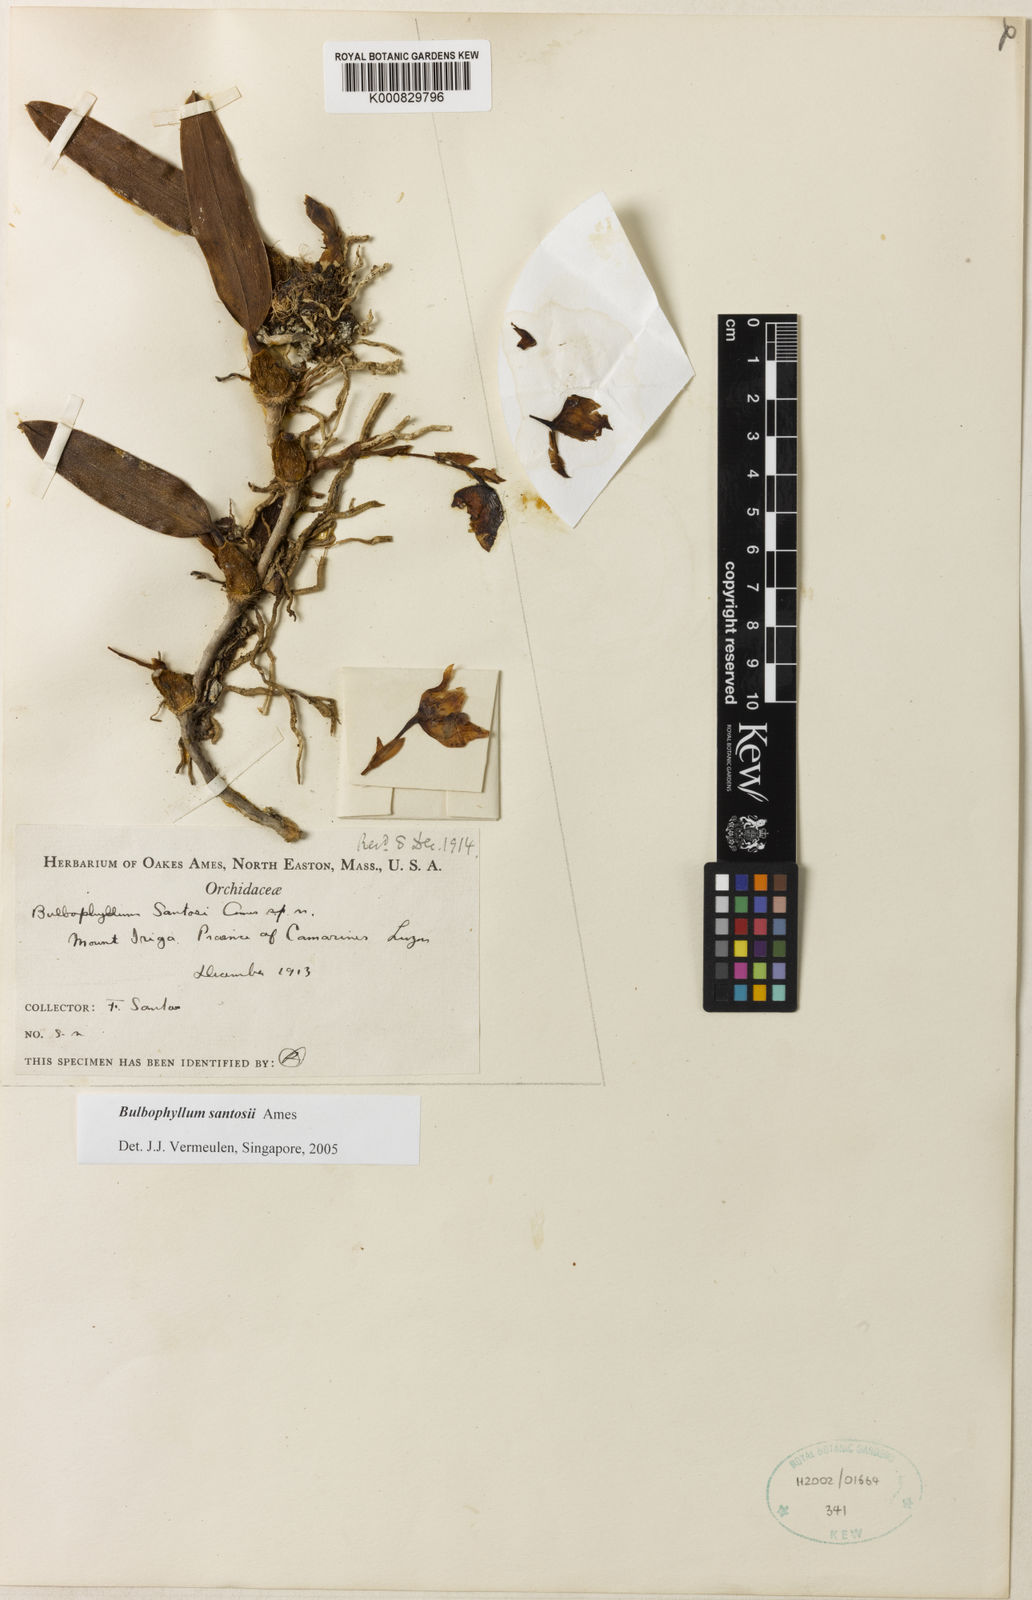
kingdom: Plantae
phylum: Tracheophyta
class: Liliopsida
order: Asparagales
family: Orchidaceae
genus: Bulbophyllum
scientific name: Bulbophyllum santosii
